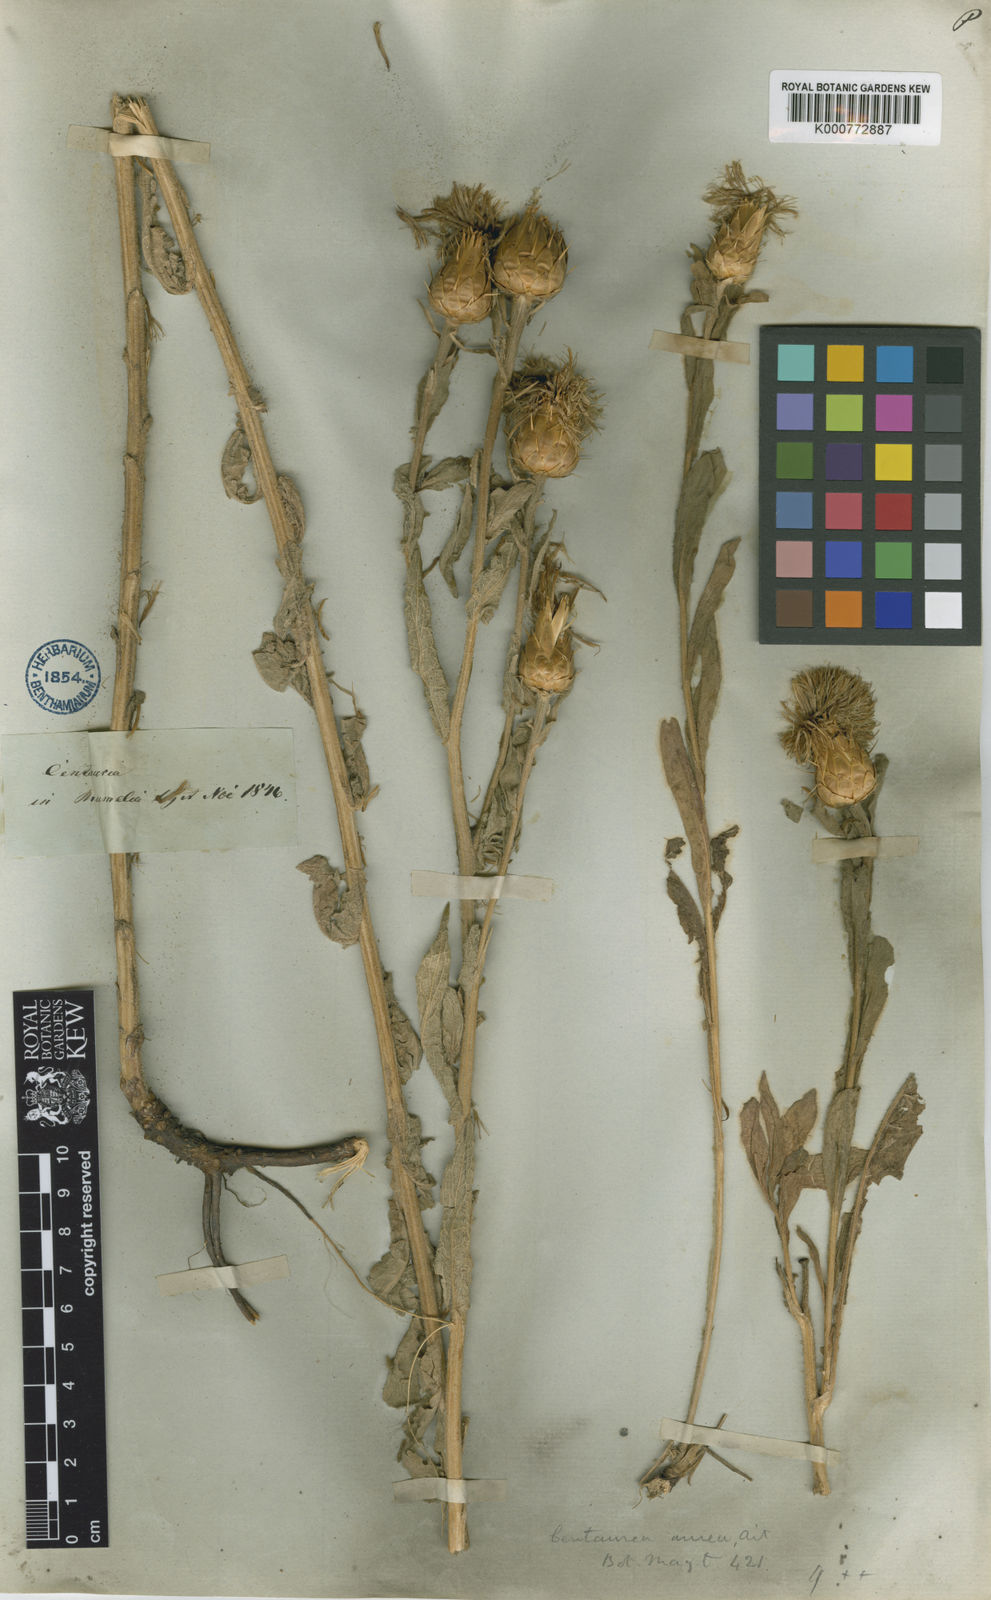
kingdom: Plantae
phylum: Tracheophyta
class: Magnoliopsida
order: Asterales
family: Asteraceae
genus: Centaurea
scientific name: Centaurea thracica
